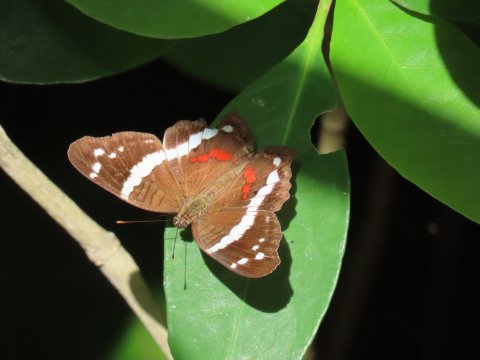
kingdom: Animalia
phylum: Arthropoda
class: Insecta
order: Lepidoptera
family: Nymphalidae
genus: Anartia
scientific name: Anartia fatima
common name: Banded Peacock
